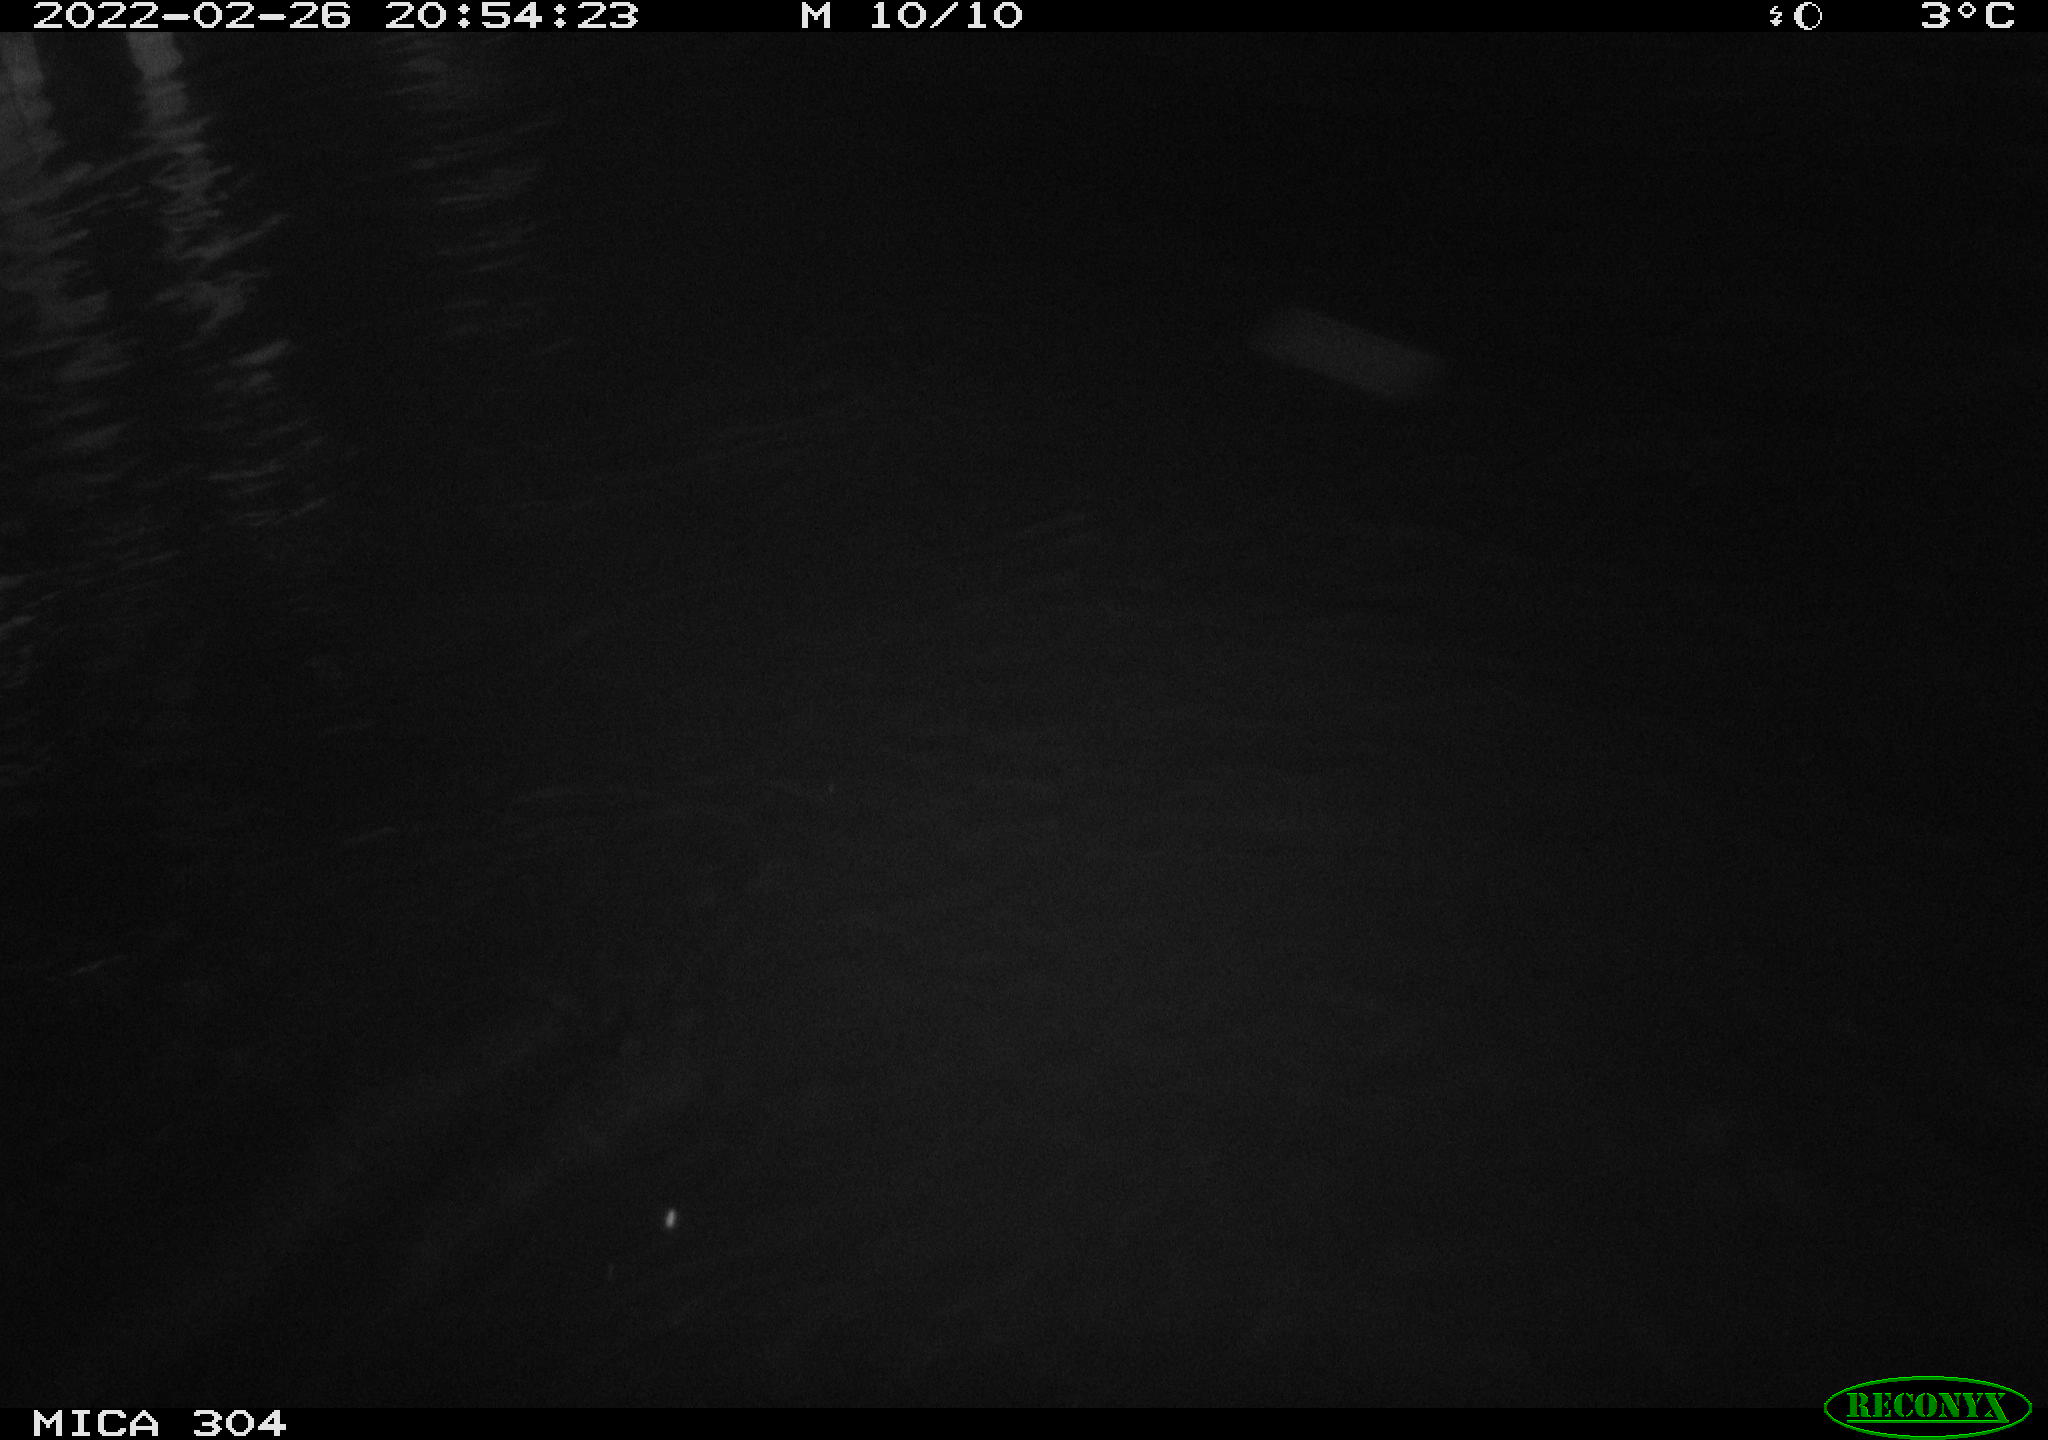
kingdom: Animalia
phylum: Chordata
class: Aves
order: Anseriformes
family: Anatidae
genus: Anas
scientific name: Anas platyrhynchos
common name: Mallard
